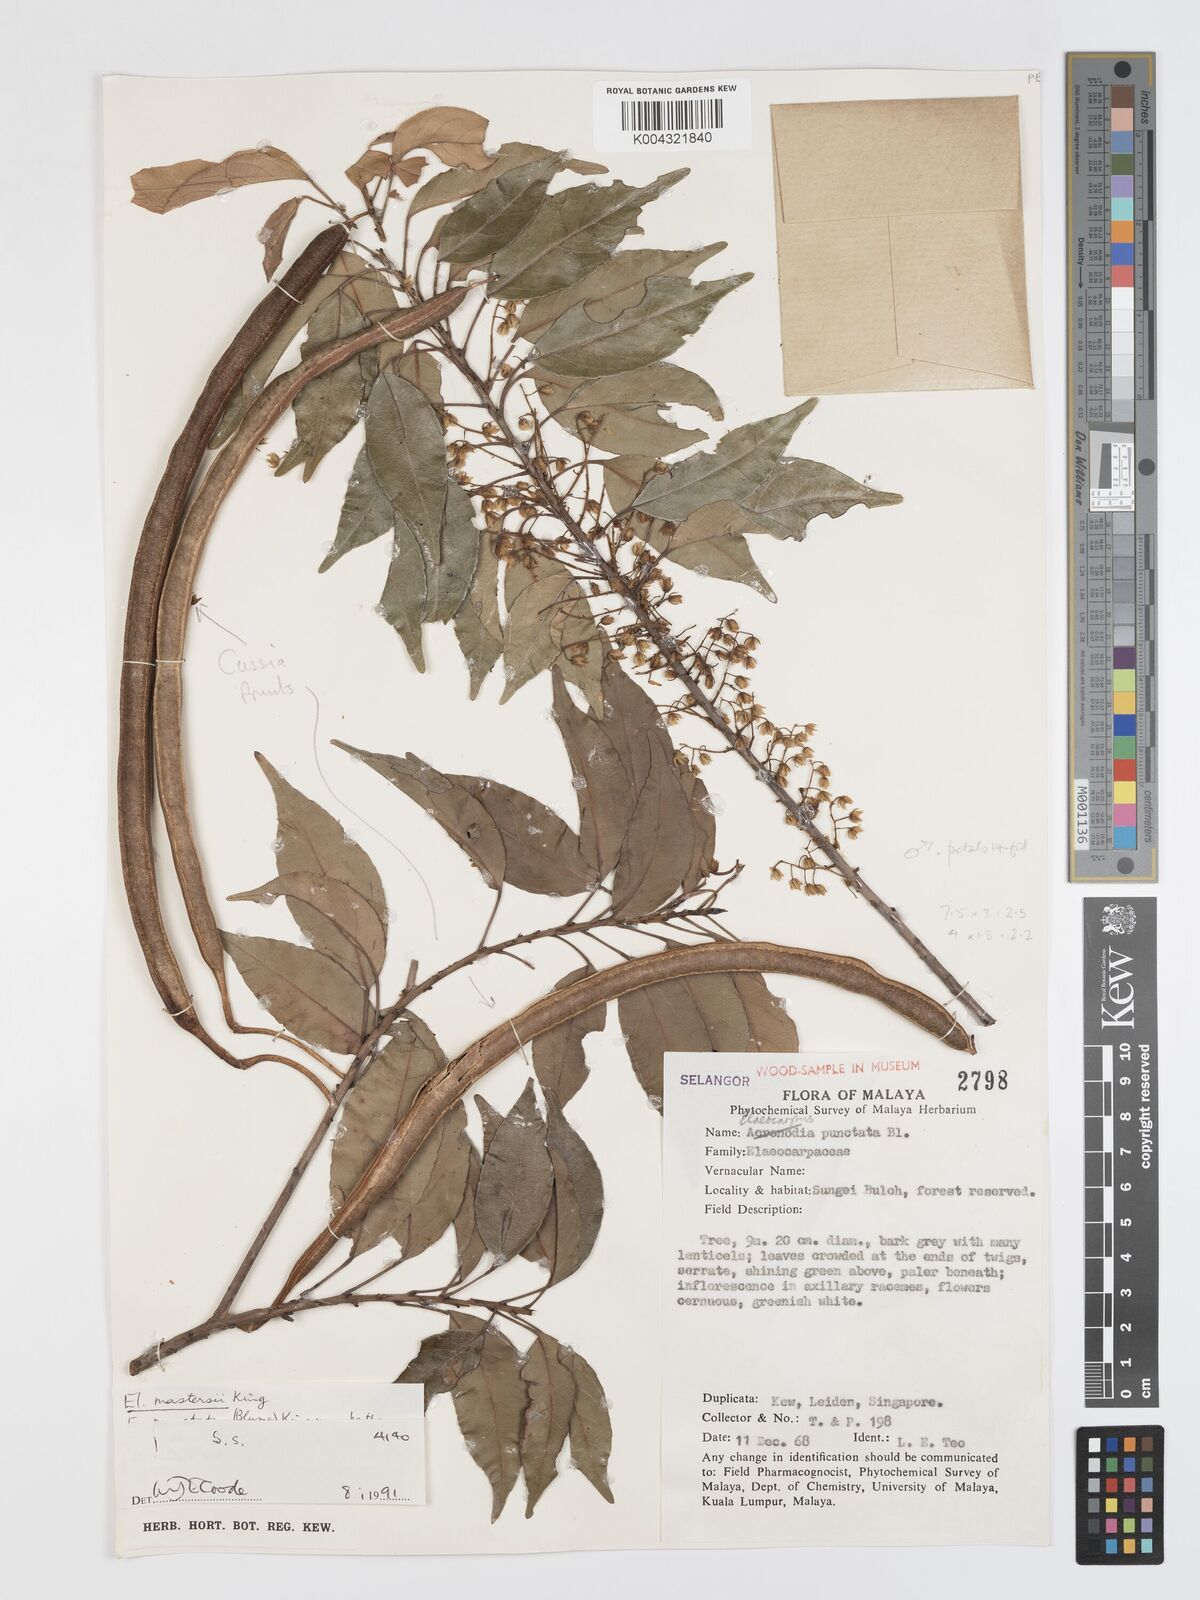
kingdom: Plantae
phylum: Tracheophyta
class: Magnoliopsida
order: Oxalidales
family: Elaeocarpaceae
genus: Elaeocarpus
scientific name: Elaeocarpus mastersii
